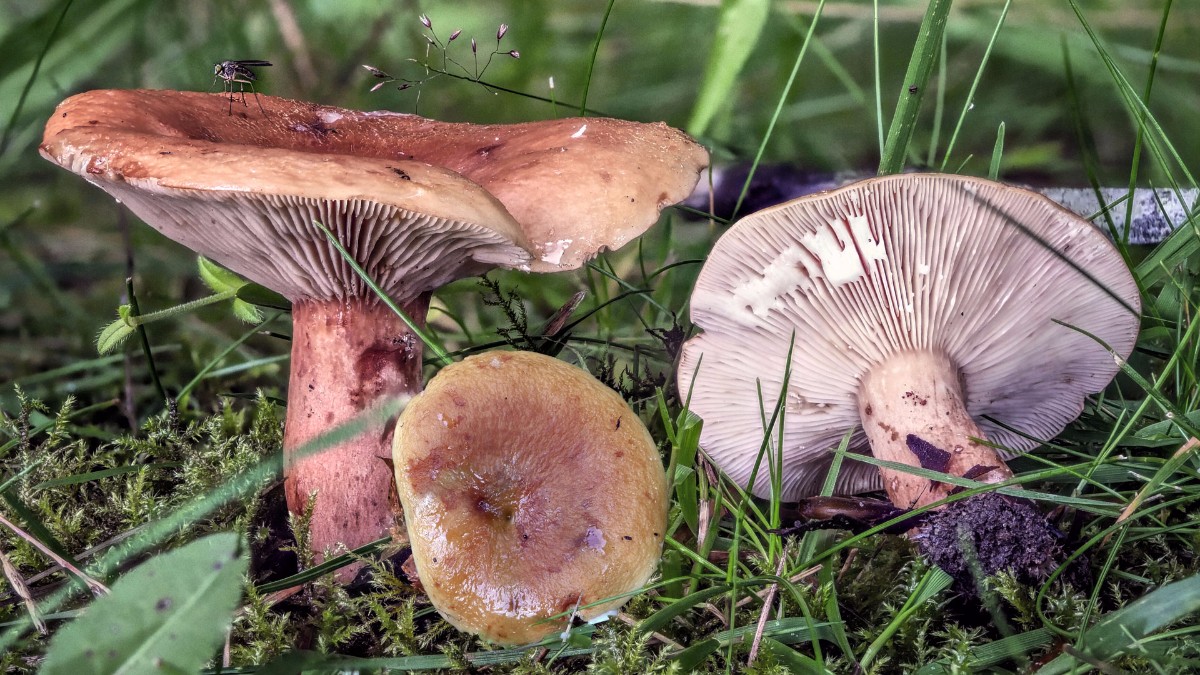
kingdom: Fungi
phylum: Basidiomycota
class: Agaricomycetes
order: Russulales
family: Russulaceae
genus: Lactarius
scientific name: Lactarius rubrocinctus
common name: halsbånd-mælkehat
